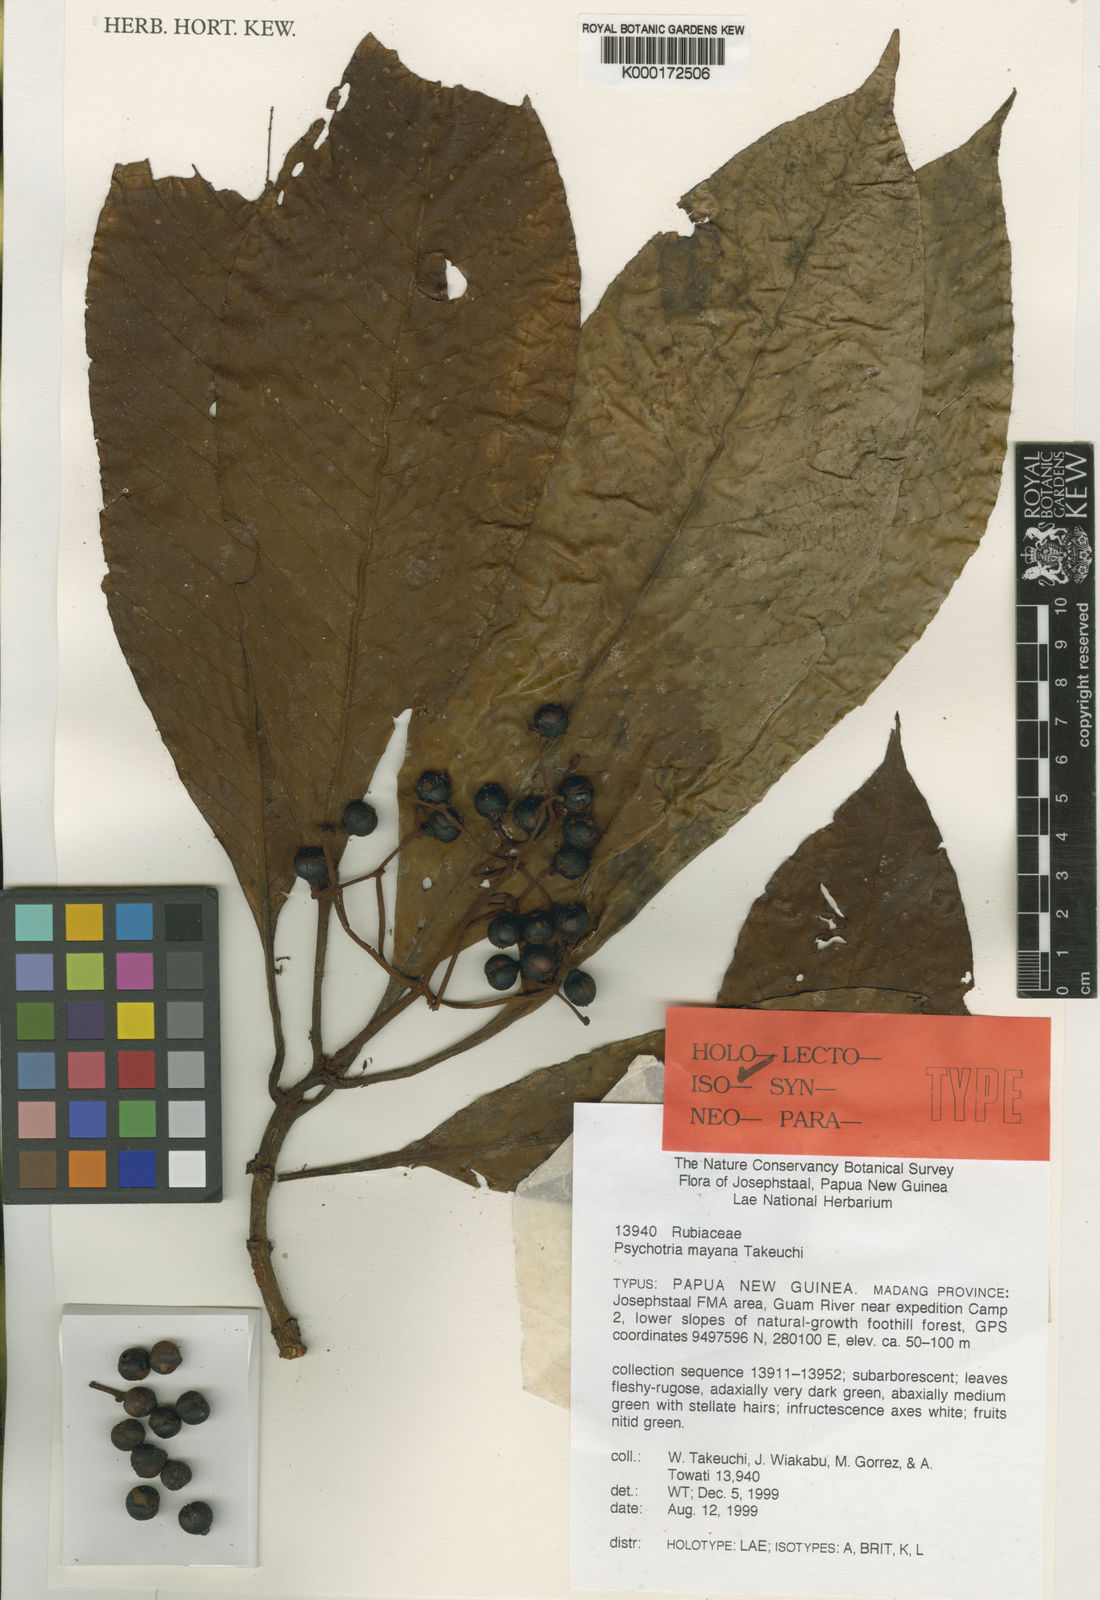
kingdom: Plantae
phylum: Tracheophyta
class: Magnoliopsida
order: Gentianales
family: Rubiaceae
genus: Psychotria
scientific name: Psychotria mayana
